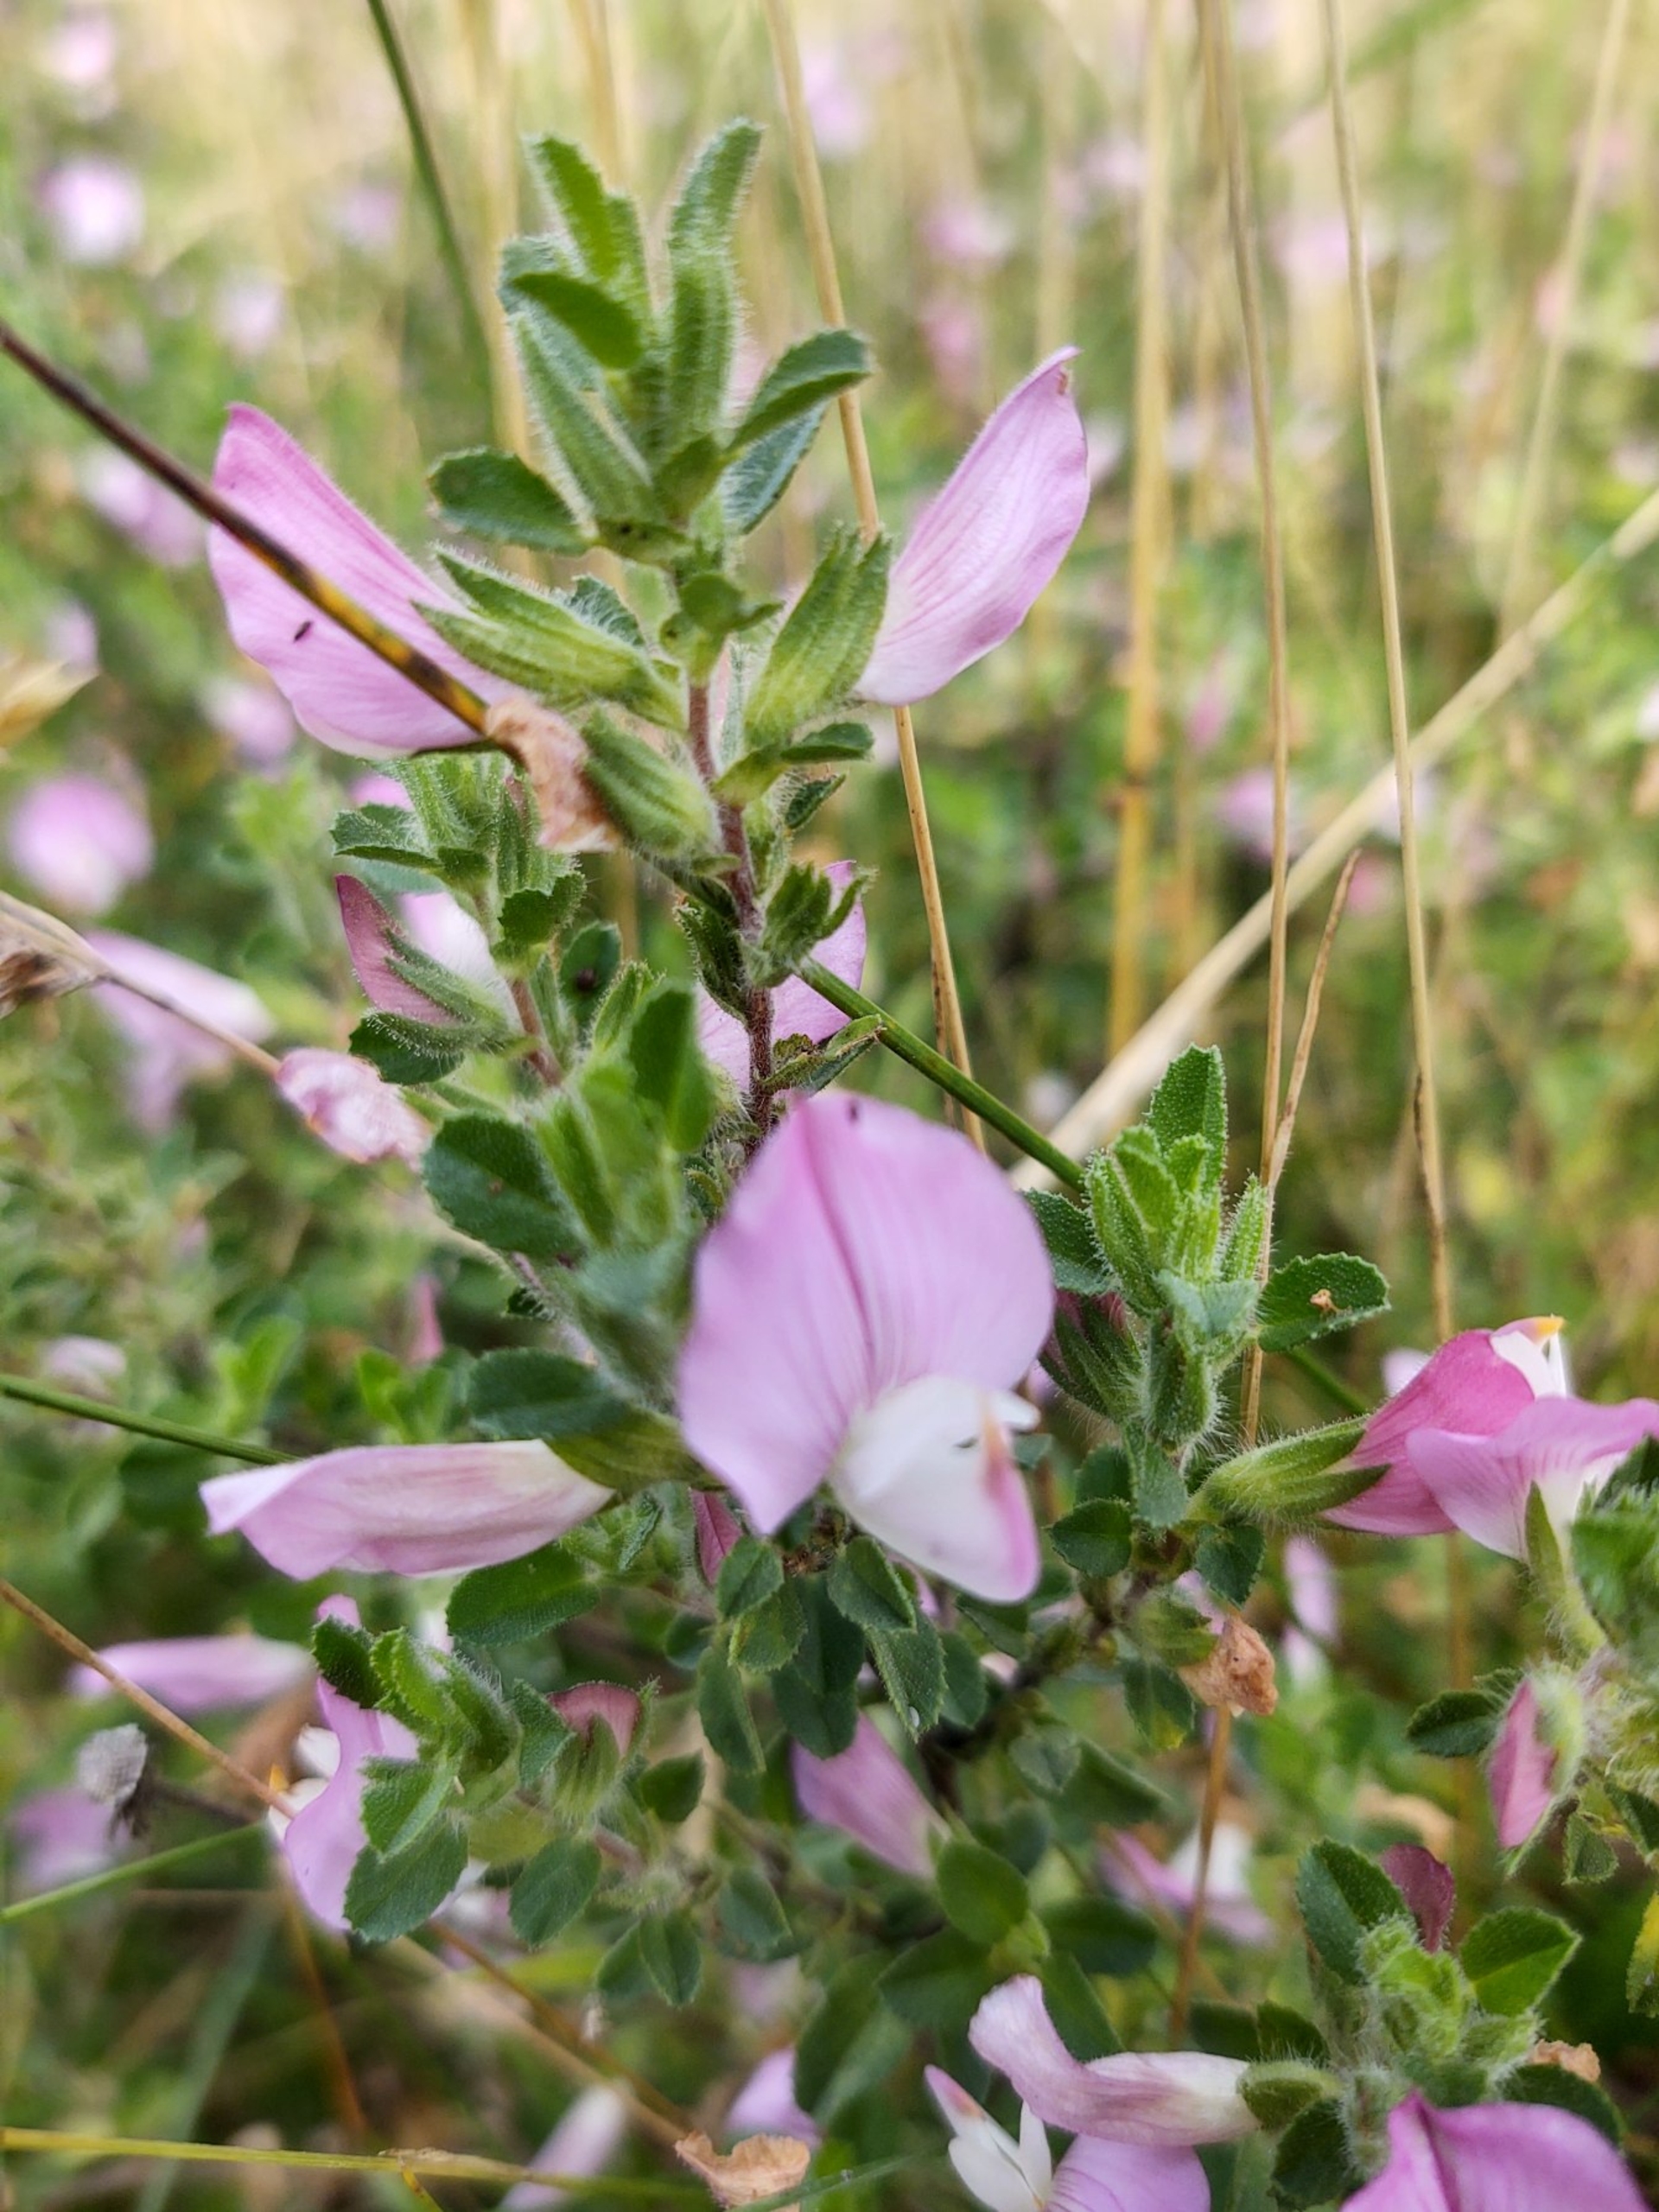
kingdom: Plantae
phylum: Tracheophyta
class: Magnoliopsida
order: Fabales
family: Fabaceae
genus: Ononis
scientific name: Ononis spinosa
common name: Mark-krageklo
